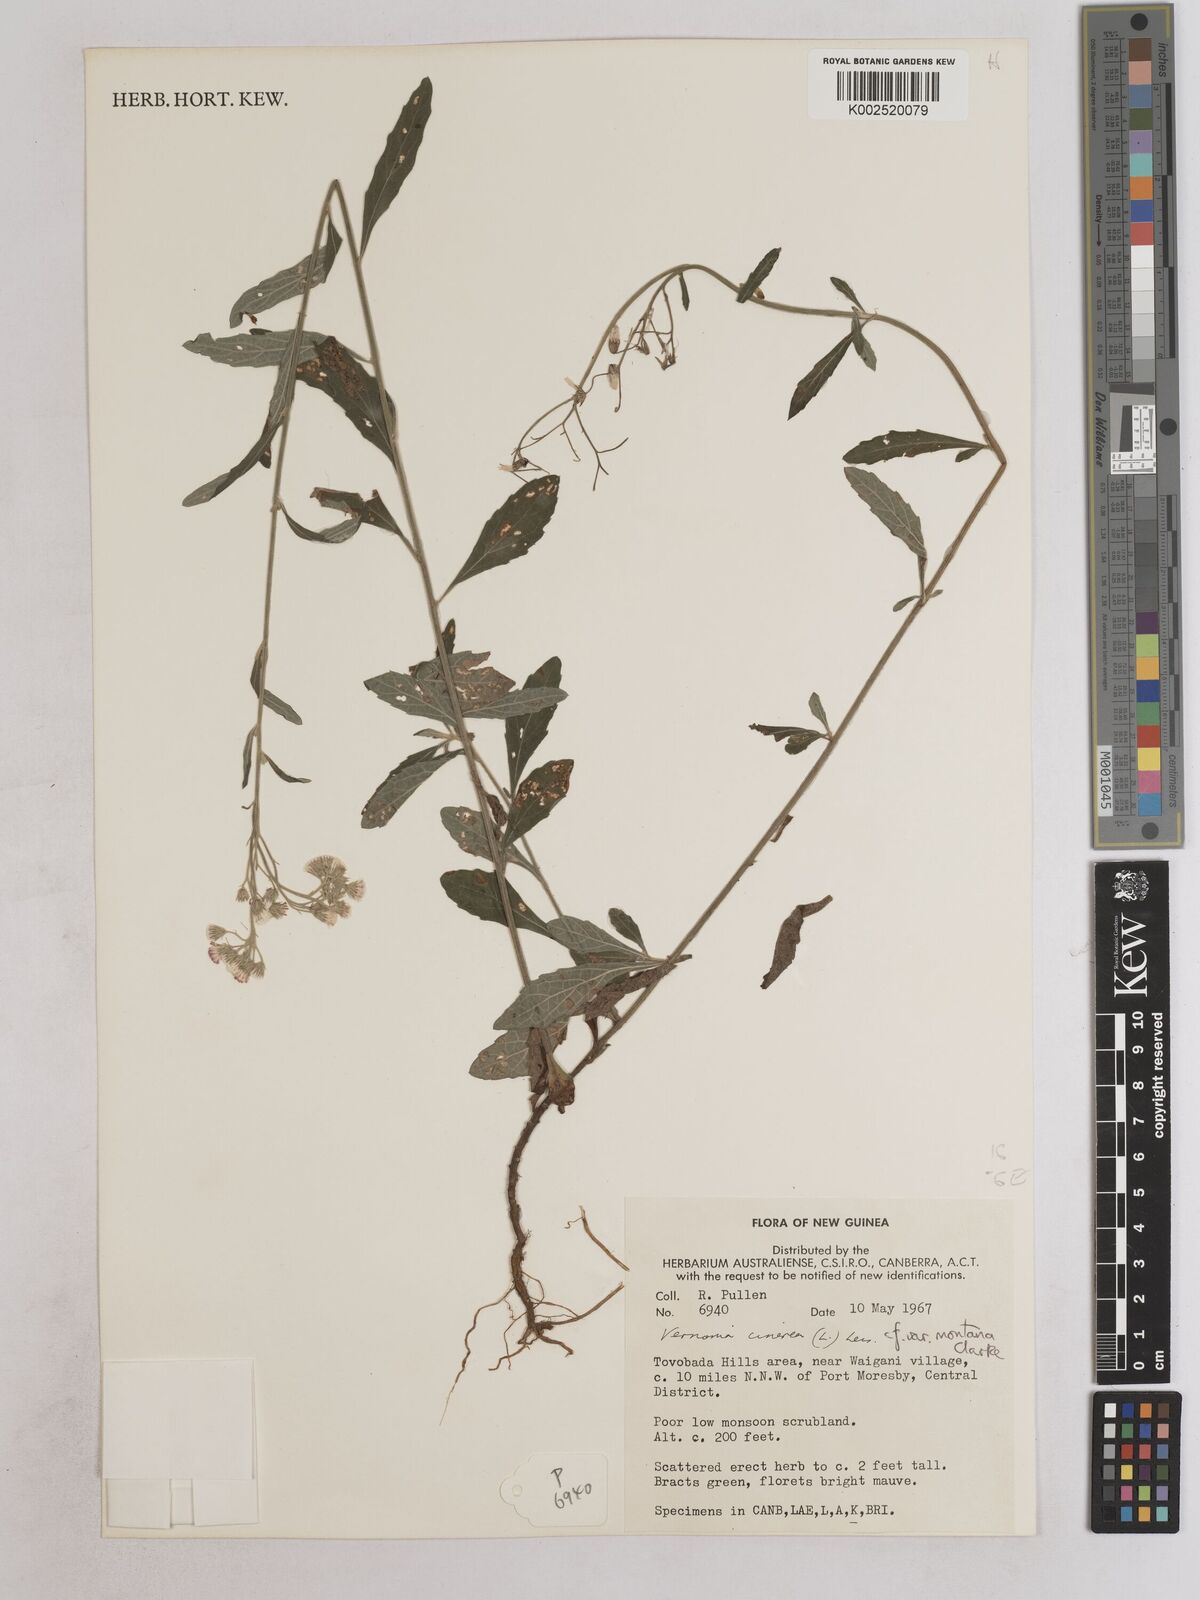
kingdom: Plantae
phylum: Tracheophyta
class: Magnoliopsida
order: Asterales
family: Asteraceae
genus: Cyanthillium
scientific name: Cyanthillium montanum
